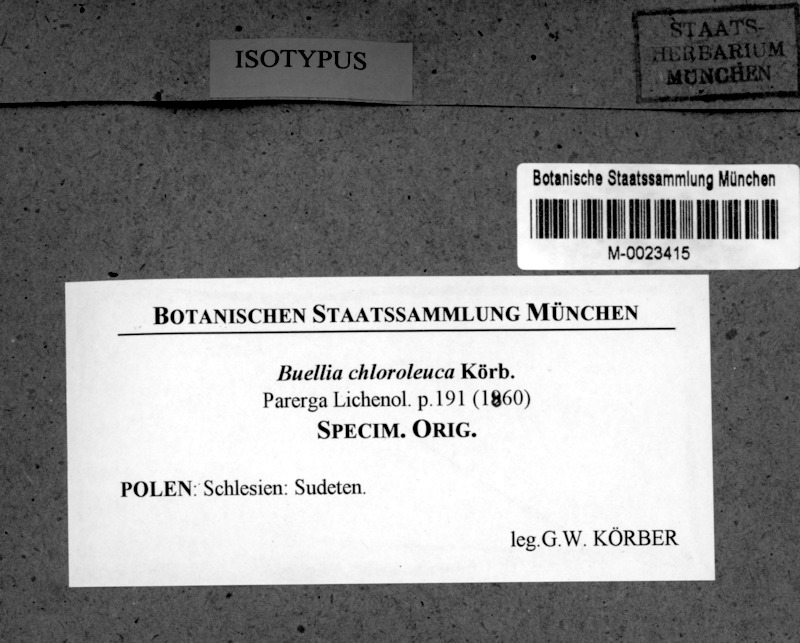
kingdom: Fungi
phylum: Ascomycota
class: Lecanoromycetes
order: Caliciales
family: Caliciaceae
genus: Tetramelas
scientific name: Tetramelas chloroleucus
